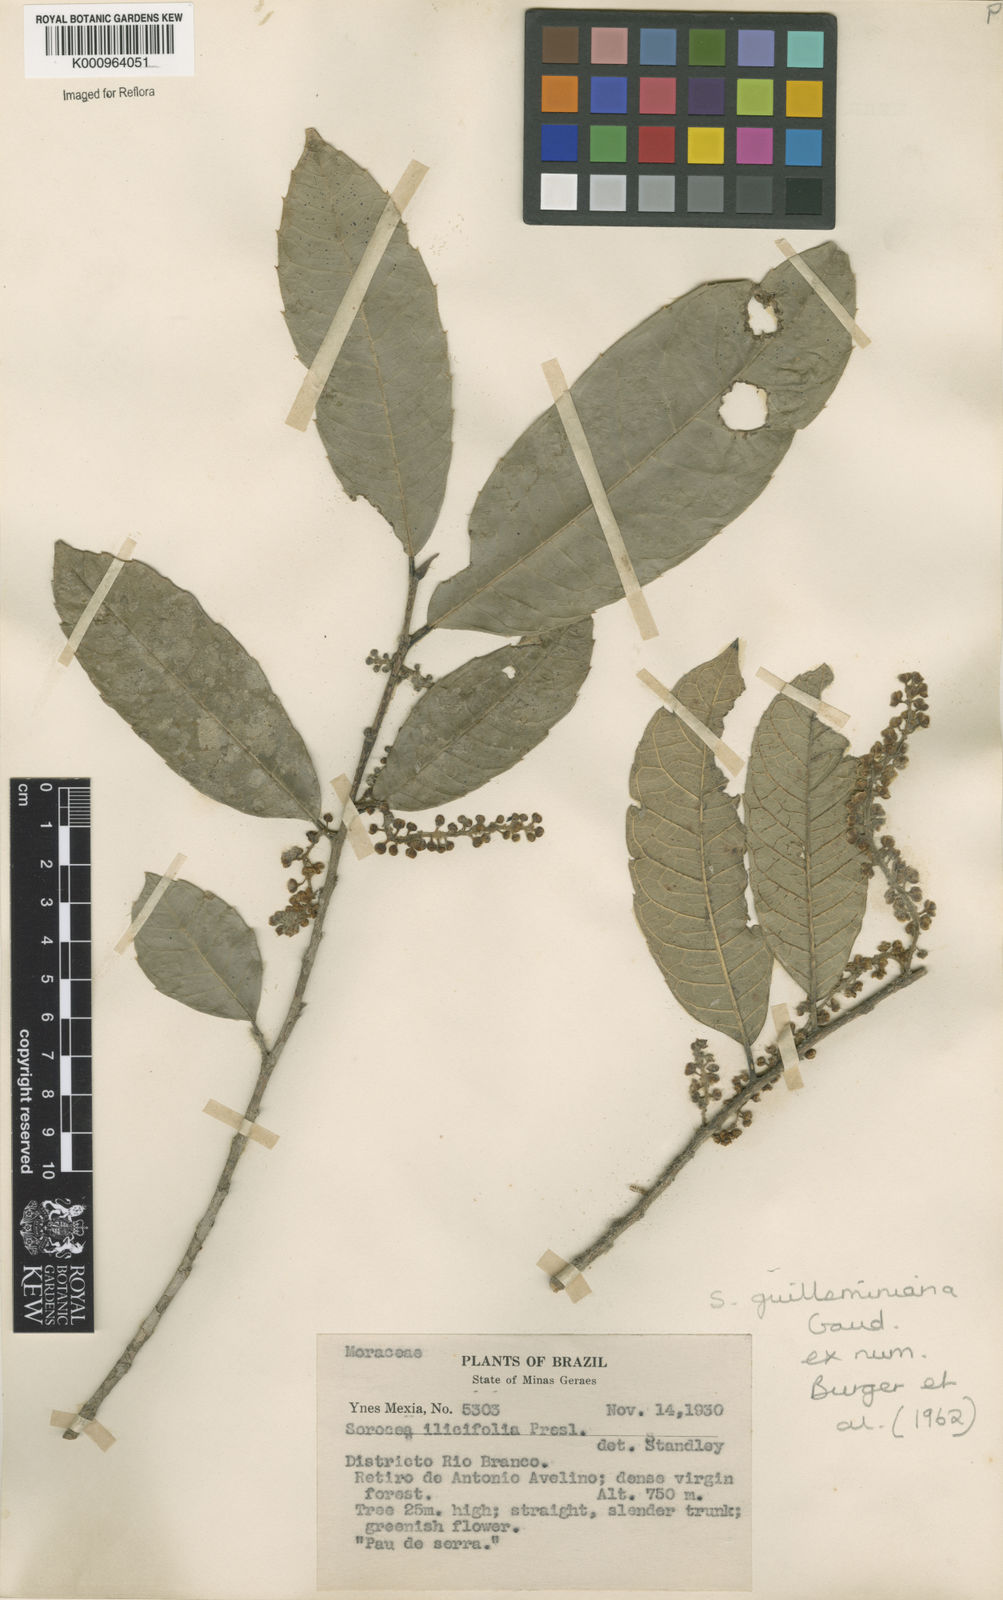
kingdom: Plantae
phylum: Tracheophyta
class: Magnoliopsida
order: Rosales
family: Moraceae
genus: Sorocea
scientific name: Sorocea guilleminiana
